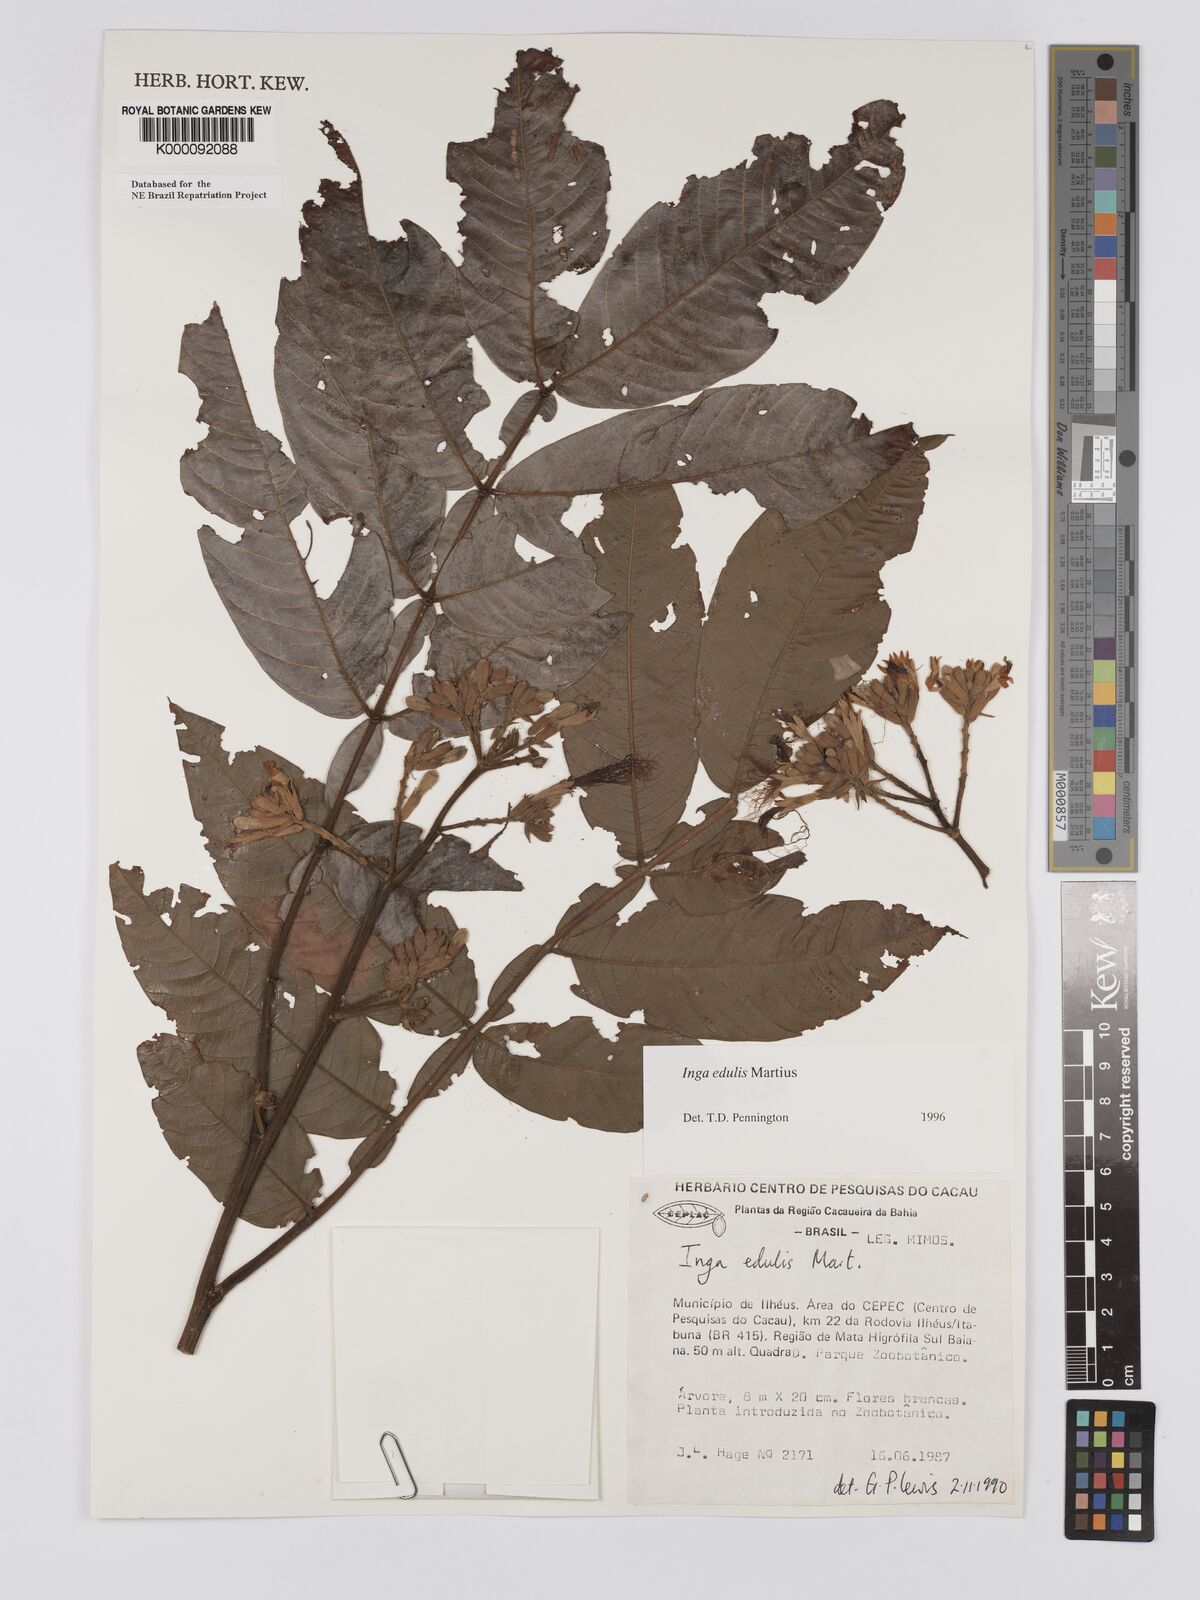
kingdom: Plantae
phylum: Tracheophyta
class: Magnoliopsida
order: Fabales
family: Fabaceae
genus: Inga
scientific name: Inga edulis
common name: Ice cream bean
